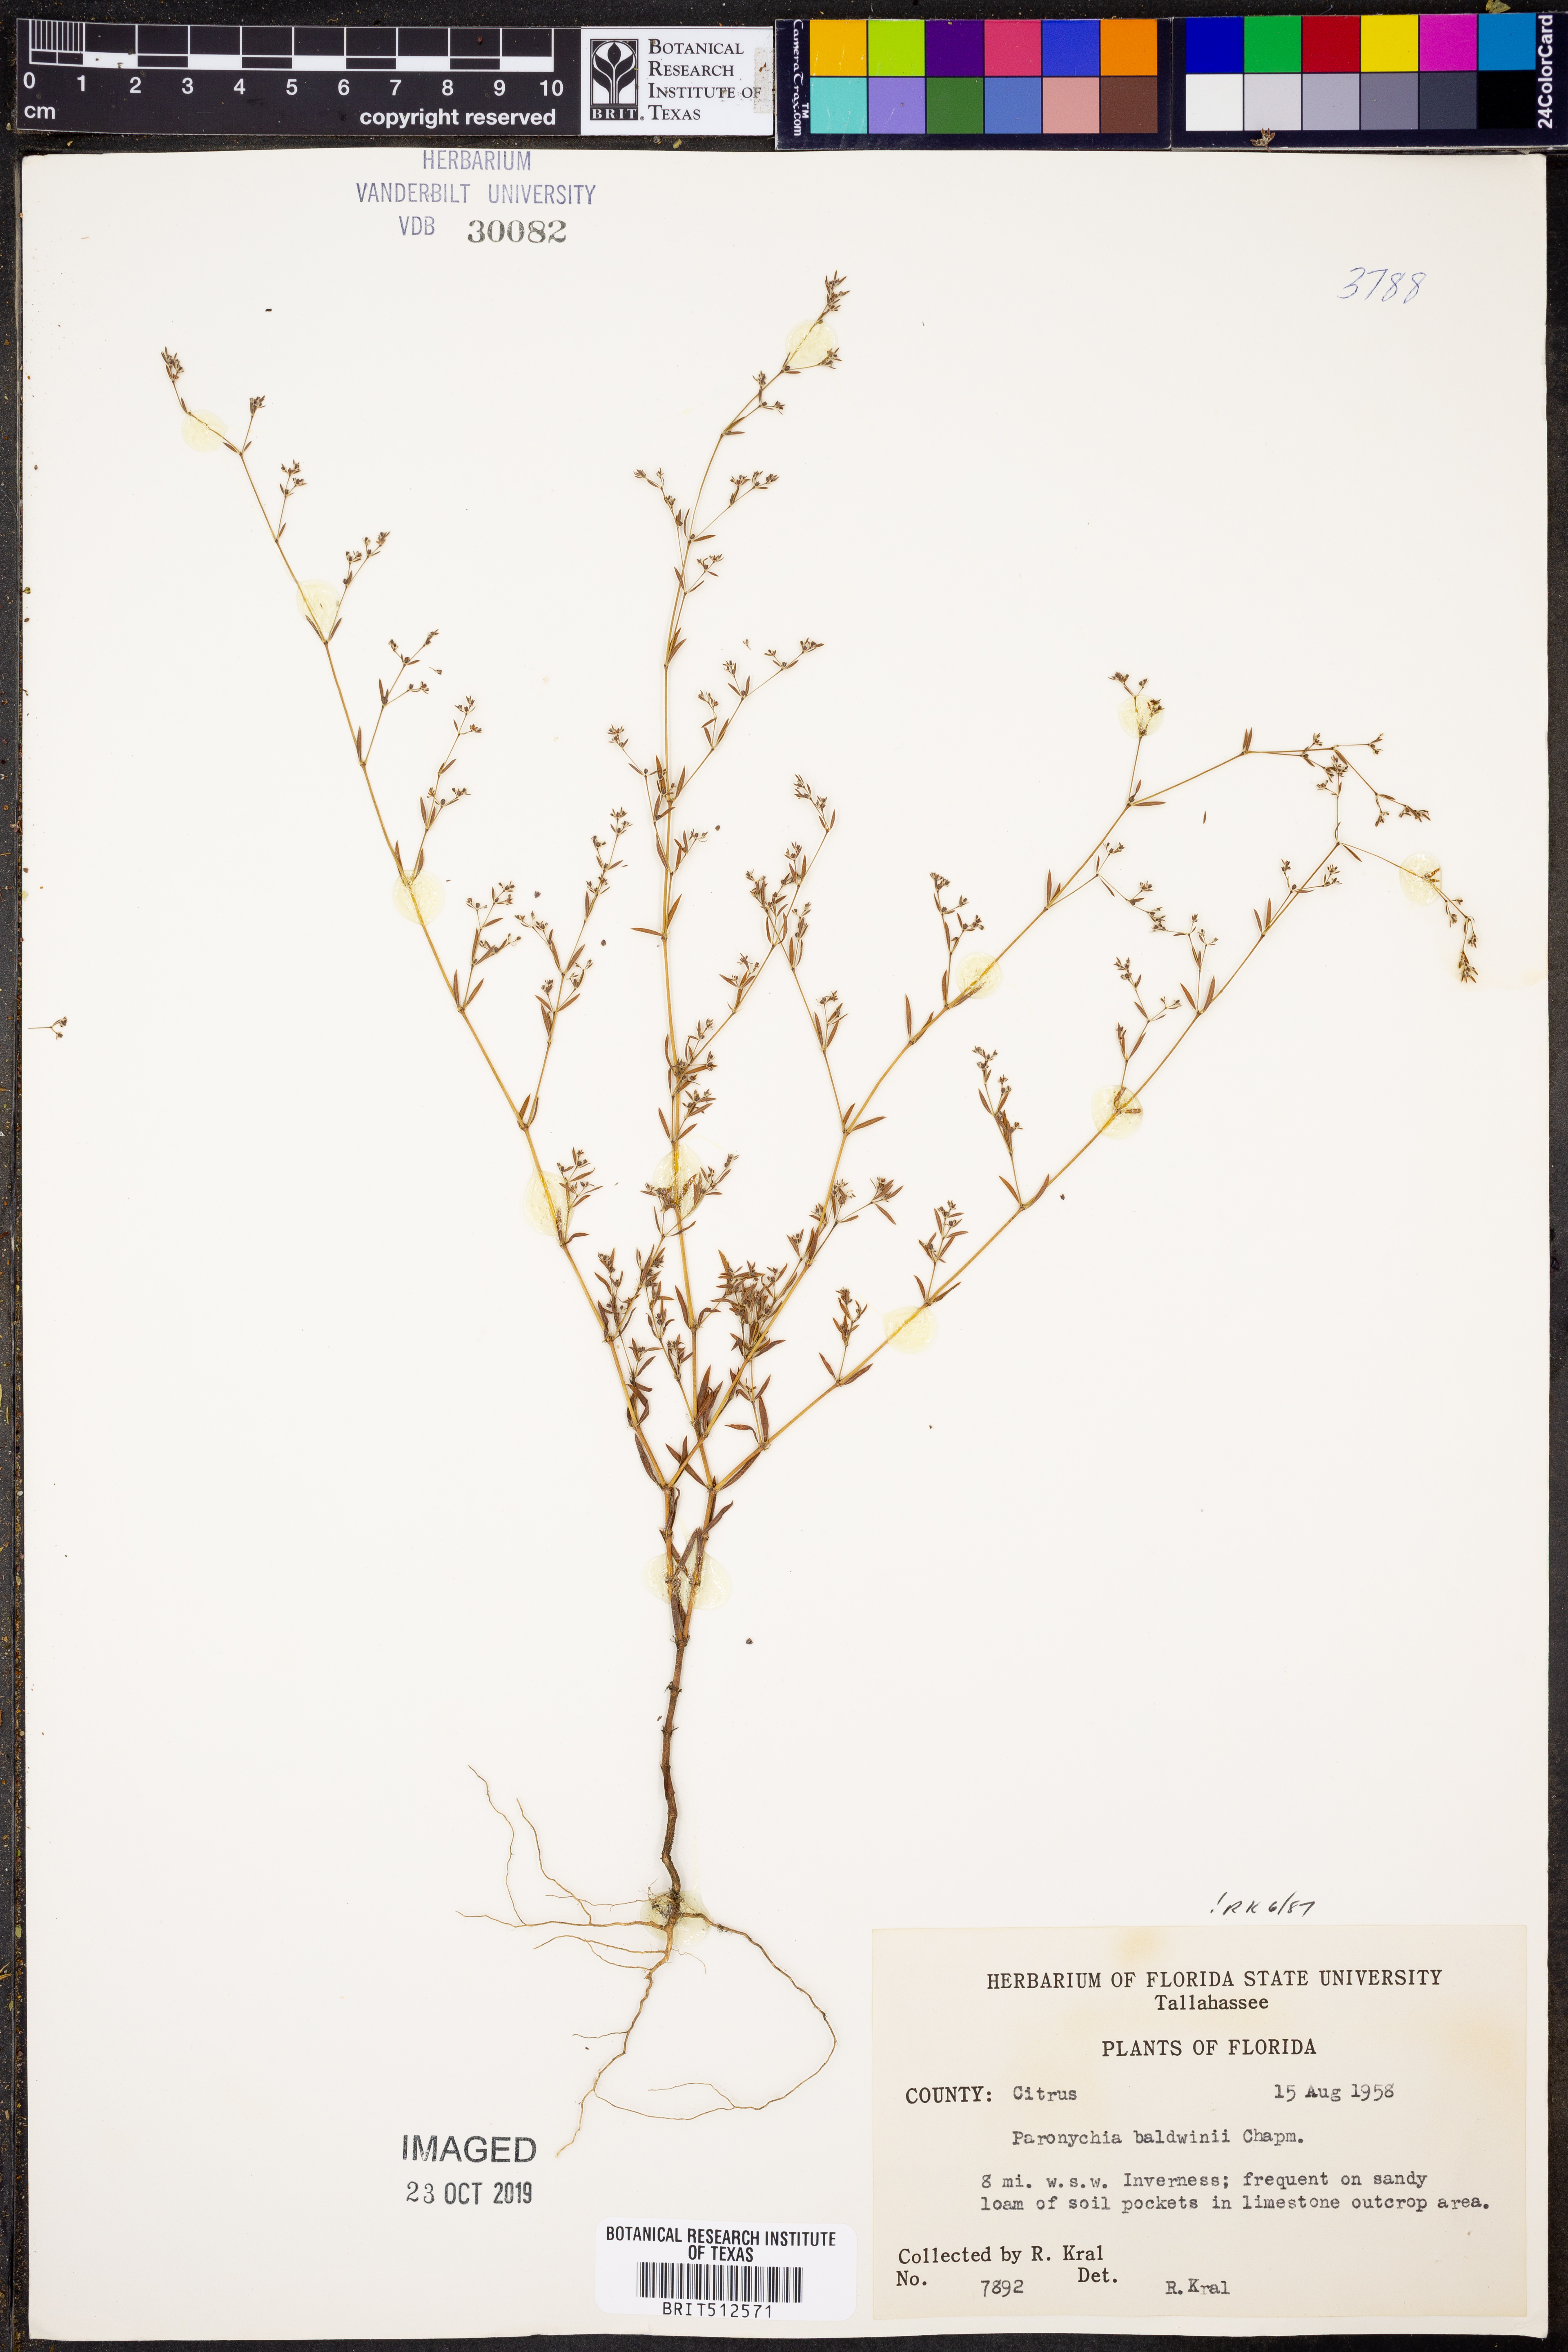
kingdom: Plantae
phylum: Tracheophyta
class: Magnoliopsida
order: Caryophyllales
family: Caryophyllaceae
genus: Paronychia
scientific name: Paronychia baldwinii
